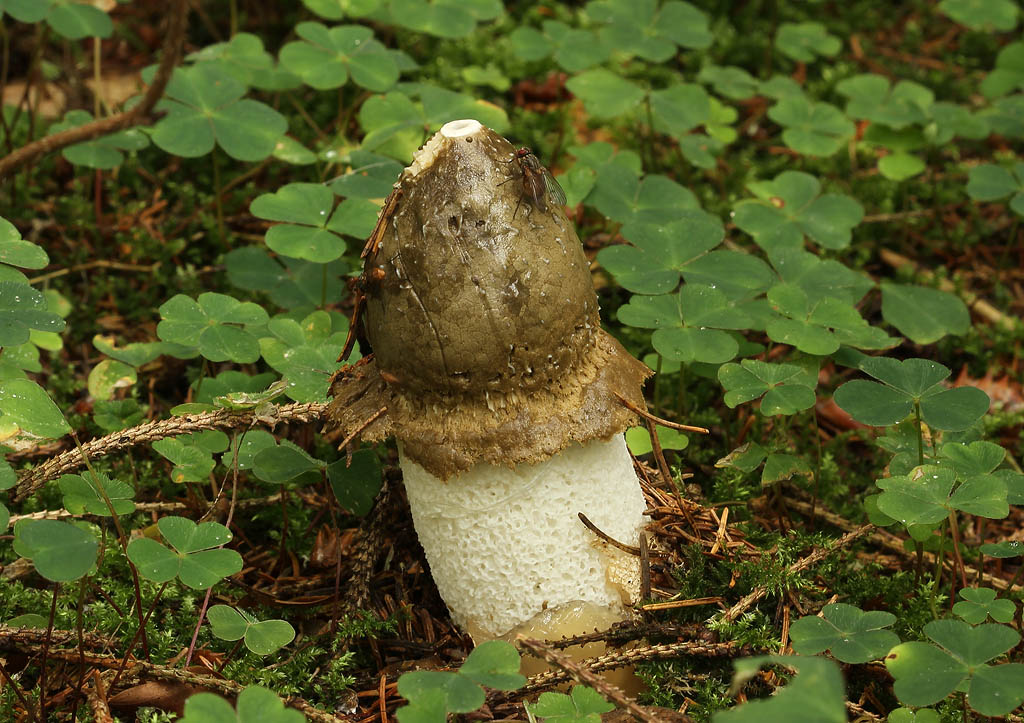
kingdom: Fungi
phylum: Basidiomycota
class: Agaricomycetes
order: Phallales
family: Phallaceae
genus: Phallus
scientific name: Phallus impudicus
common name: almindelig stinksvamp
